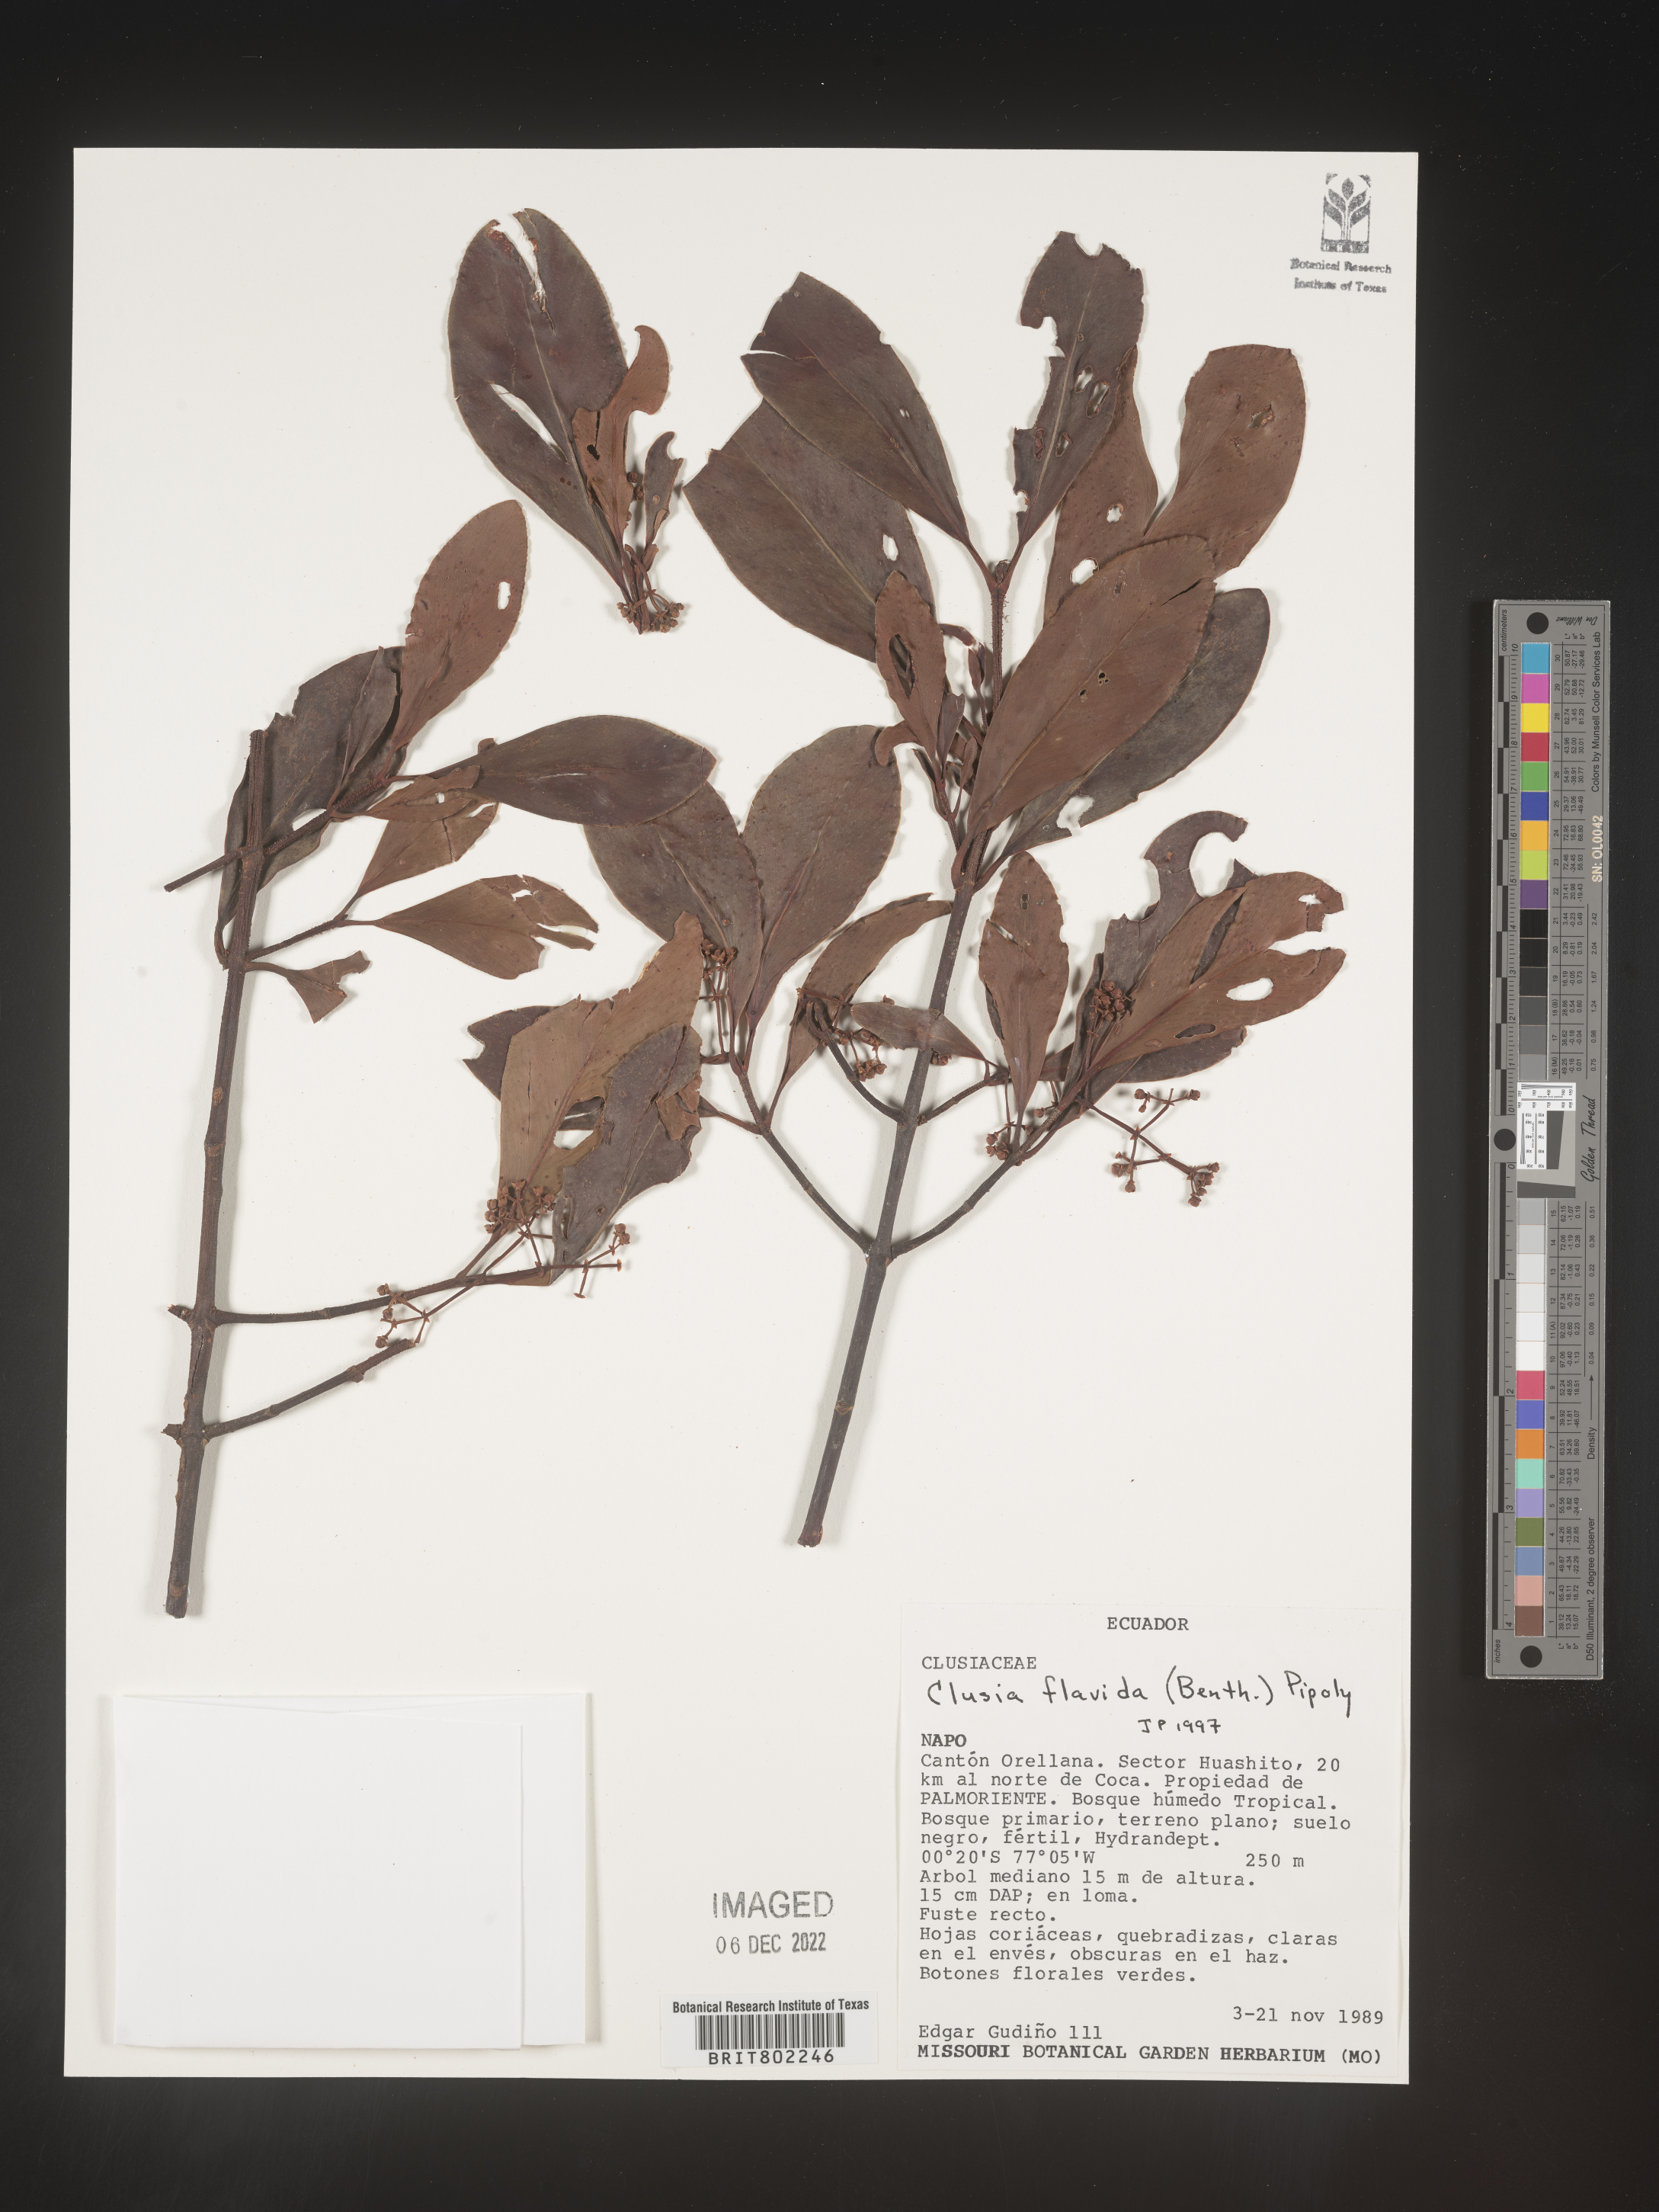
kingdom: Plantae
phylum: Tracheophyta
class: Magnoliopsida
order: Malpighiales
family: Clusiaceae
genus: Clusia
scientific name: Clusia flavida
